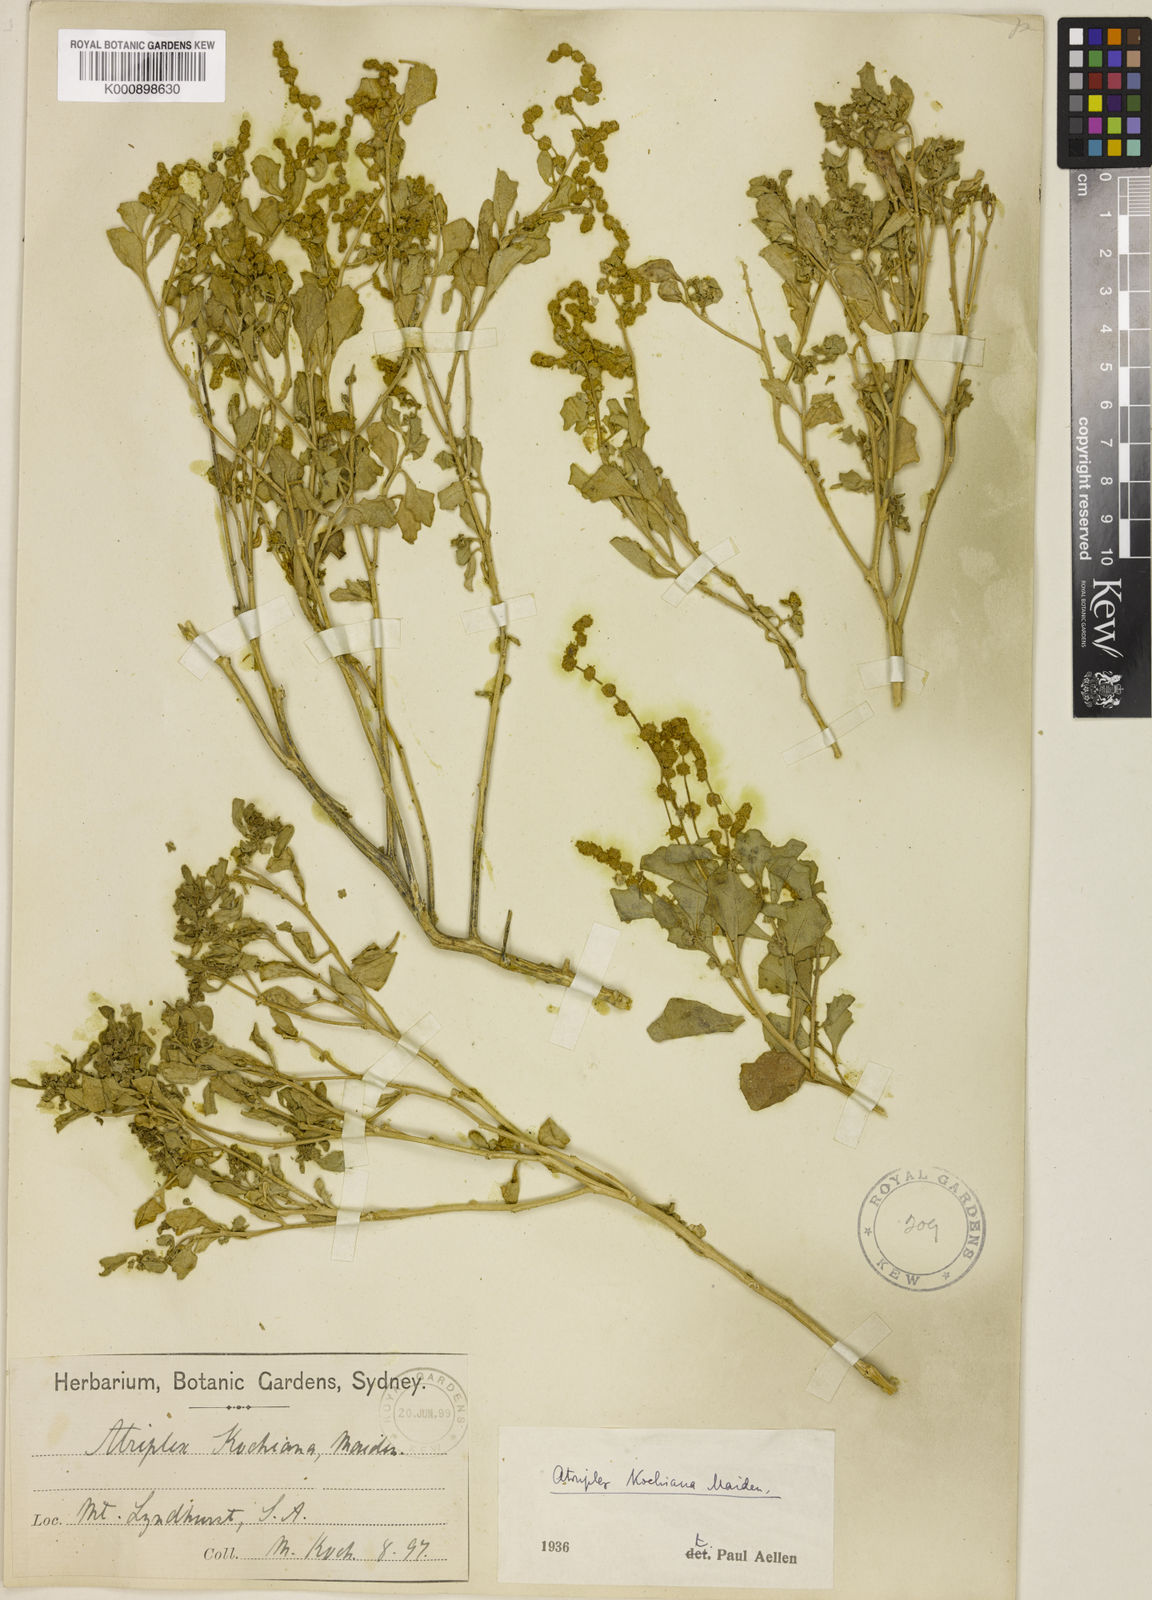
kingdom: Plantae
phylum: Tracheophyta
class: Magnoliopsida
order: Caryophyllales
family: Amaranthaceae
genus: Atriplex
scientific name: Atriplex kochiana
